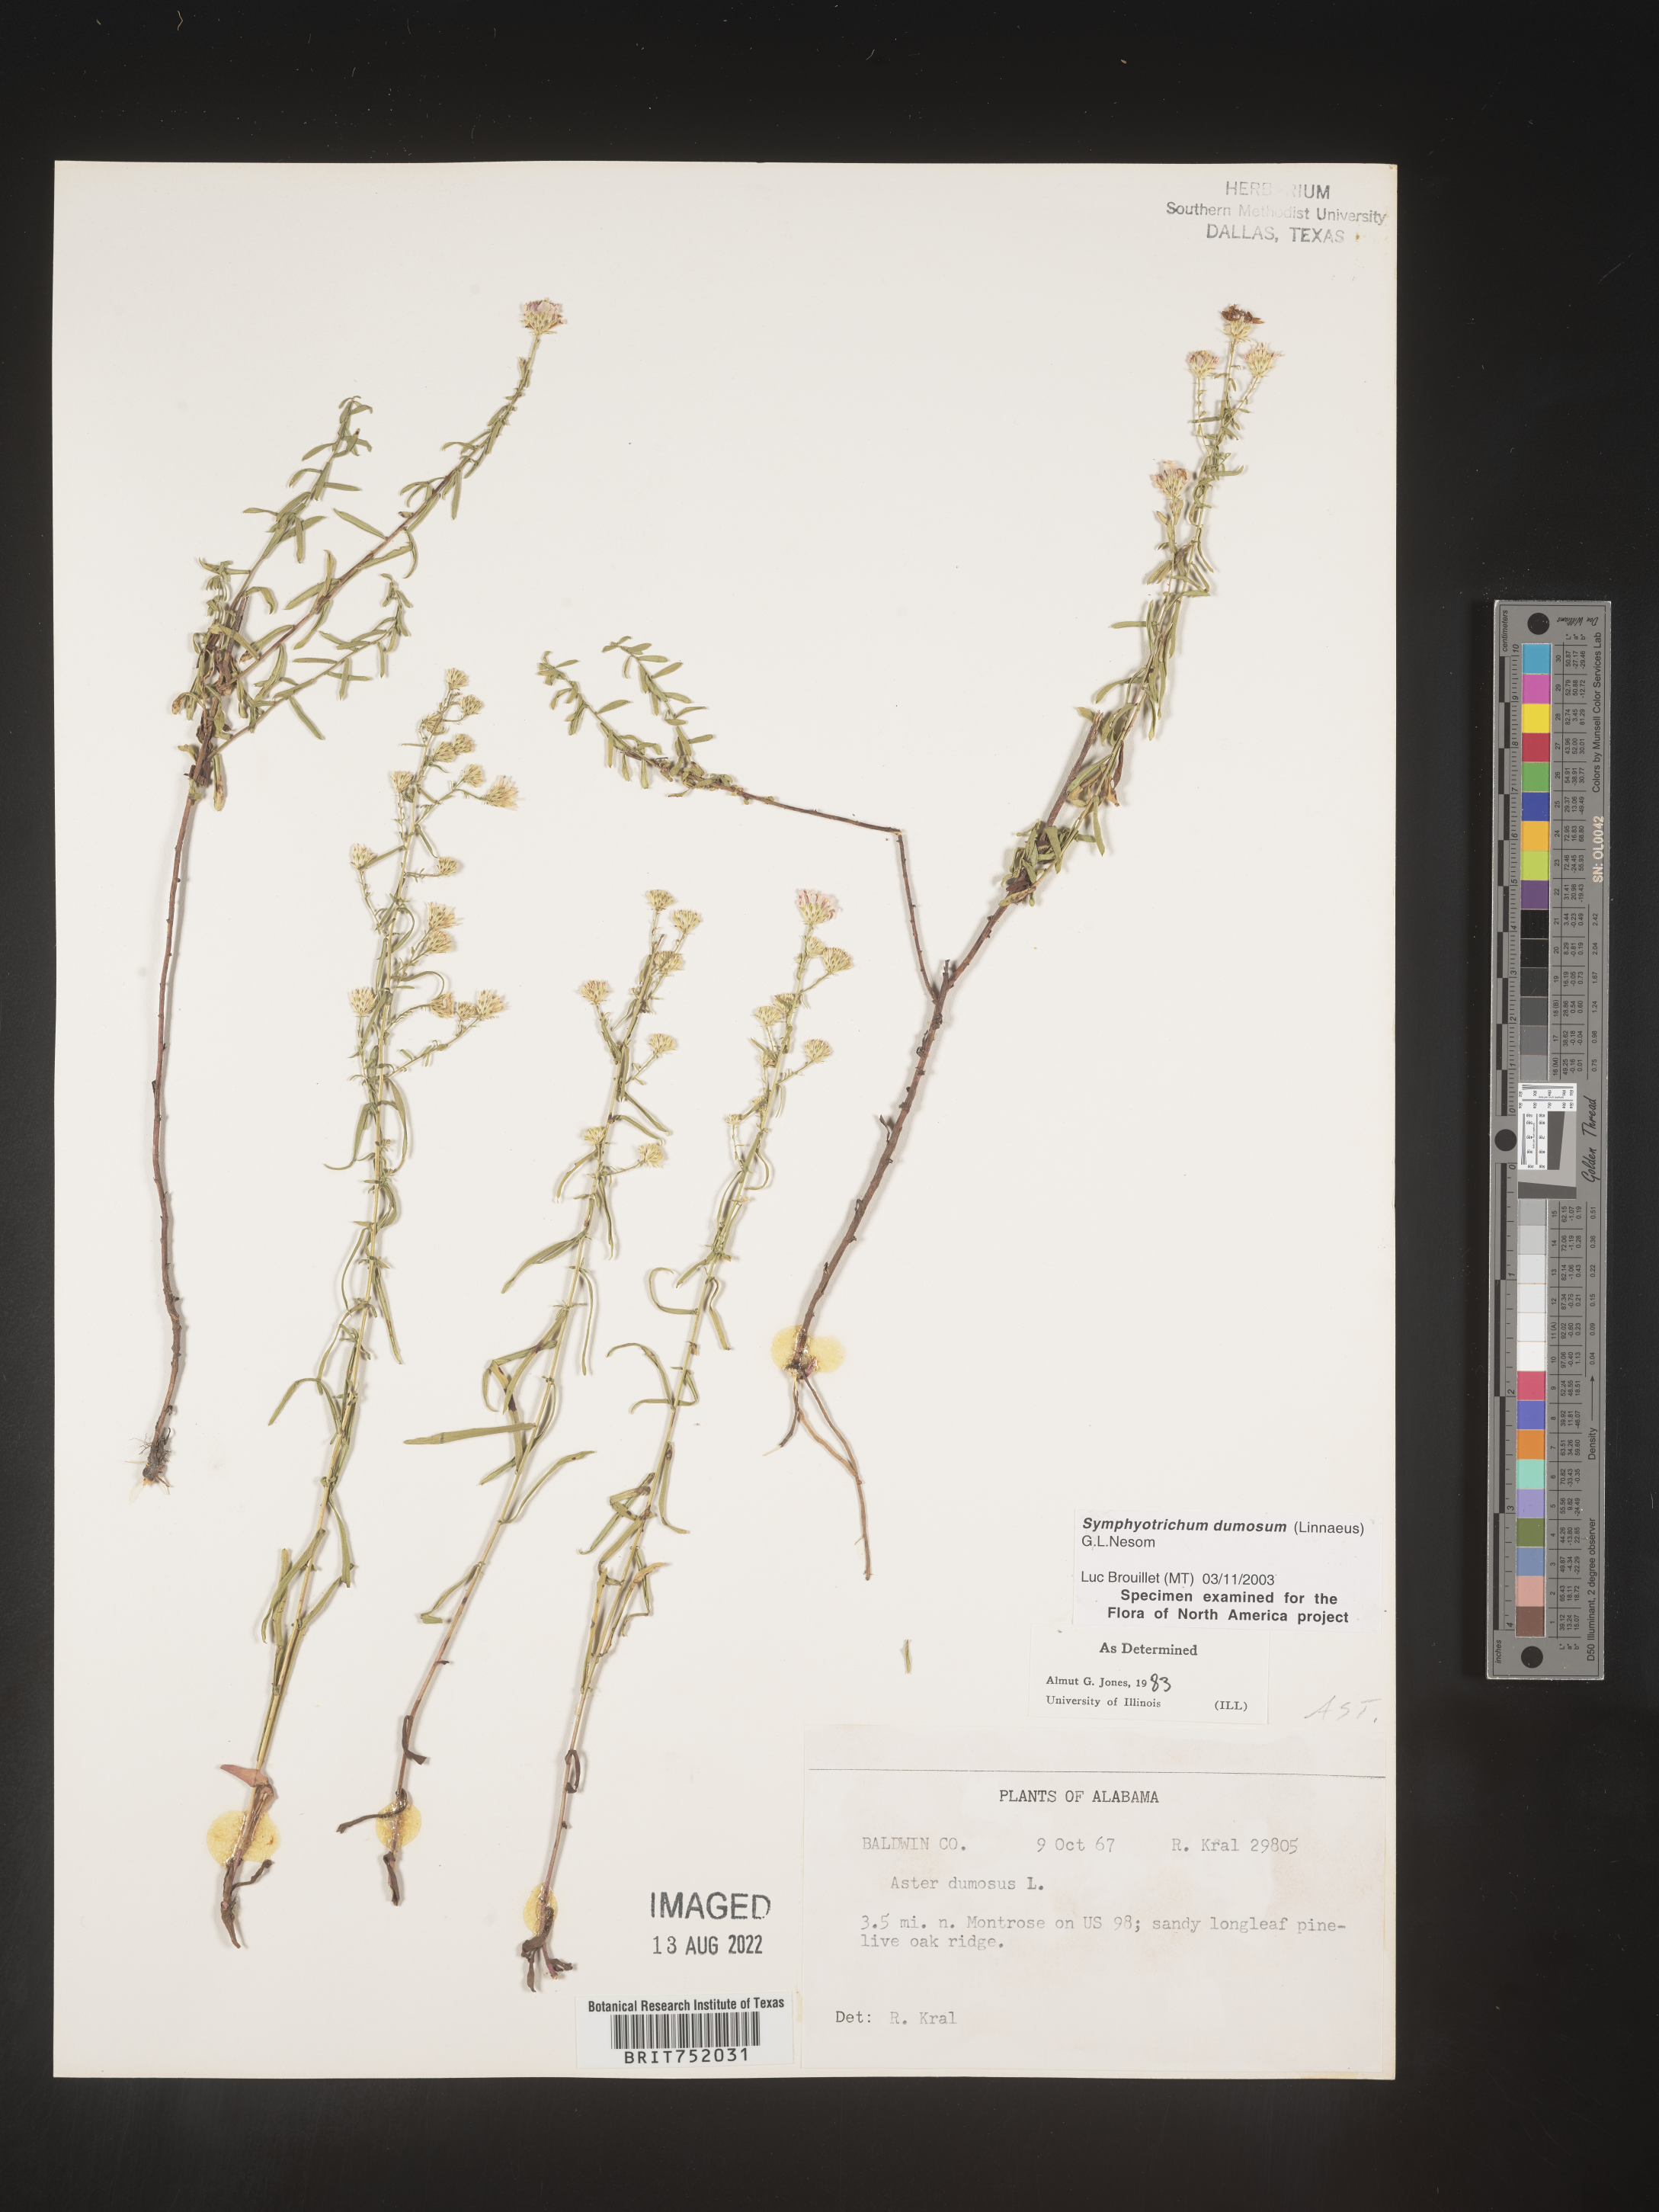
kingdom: Plantae
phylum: Tracheophyta
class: Magnoliopsida
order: Asterales
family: Asteraceae
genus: Symphyotrichum
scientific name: Symphyotrichum dumosum
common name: Bushy aster
